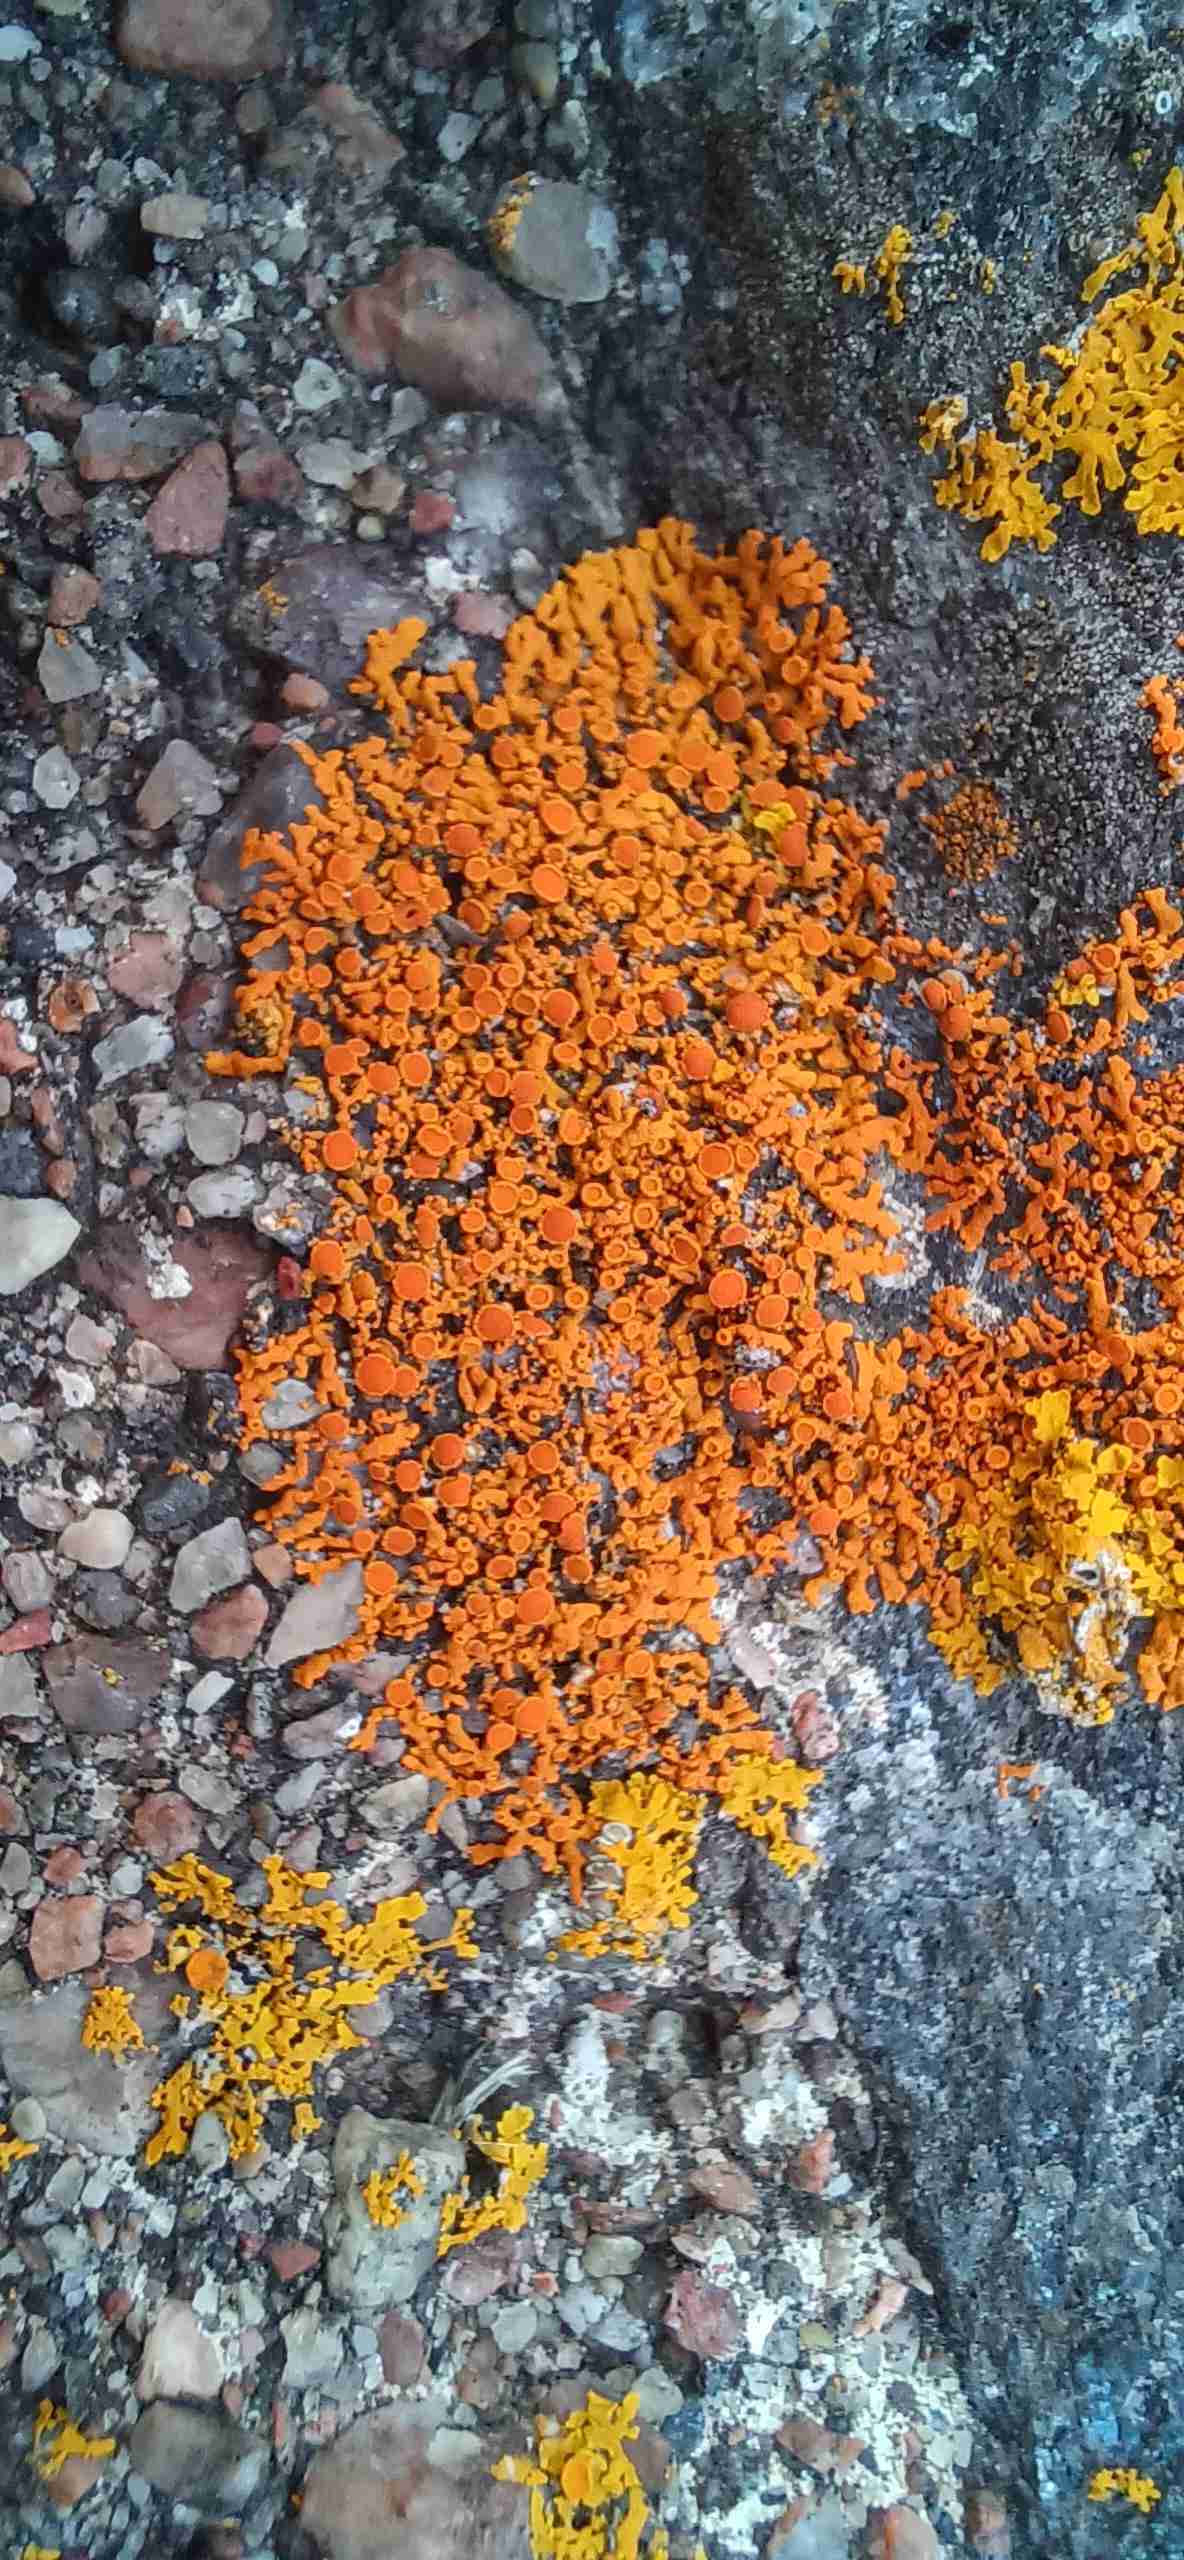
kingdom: Fungi
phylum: Ascomycota
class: Lecanoromycetes
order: Teloschistales
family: Teloschistaceae
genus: Xanthoria
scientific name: Xanthoria elegans
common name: Elegant sunburst lichen
